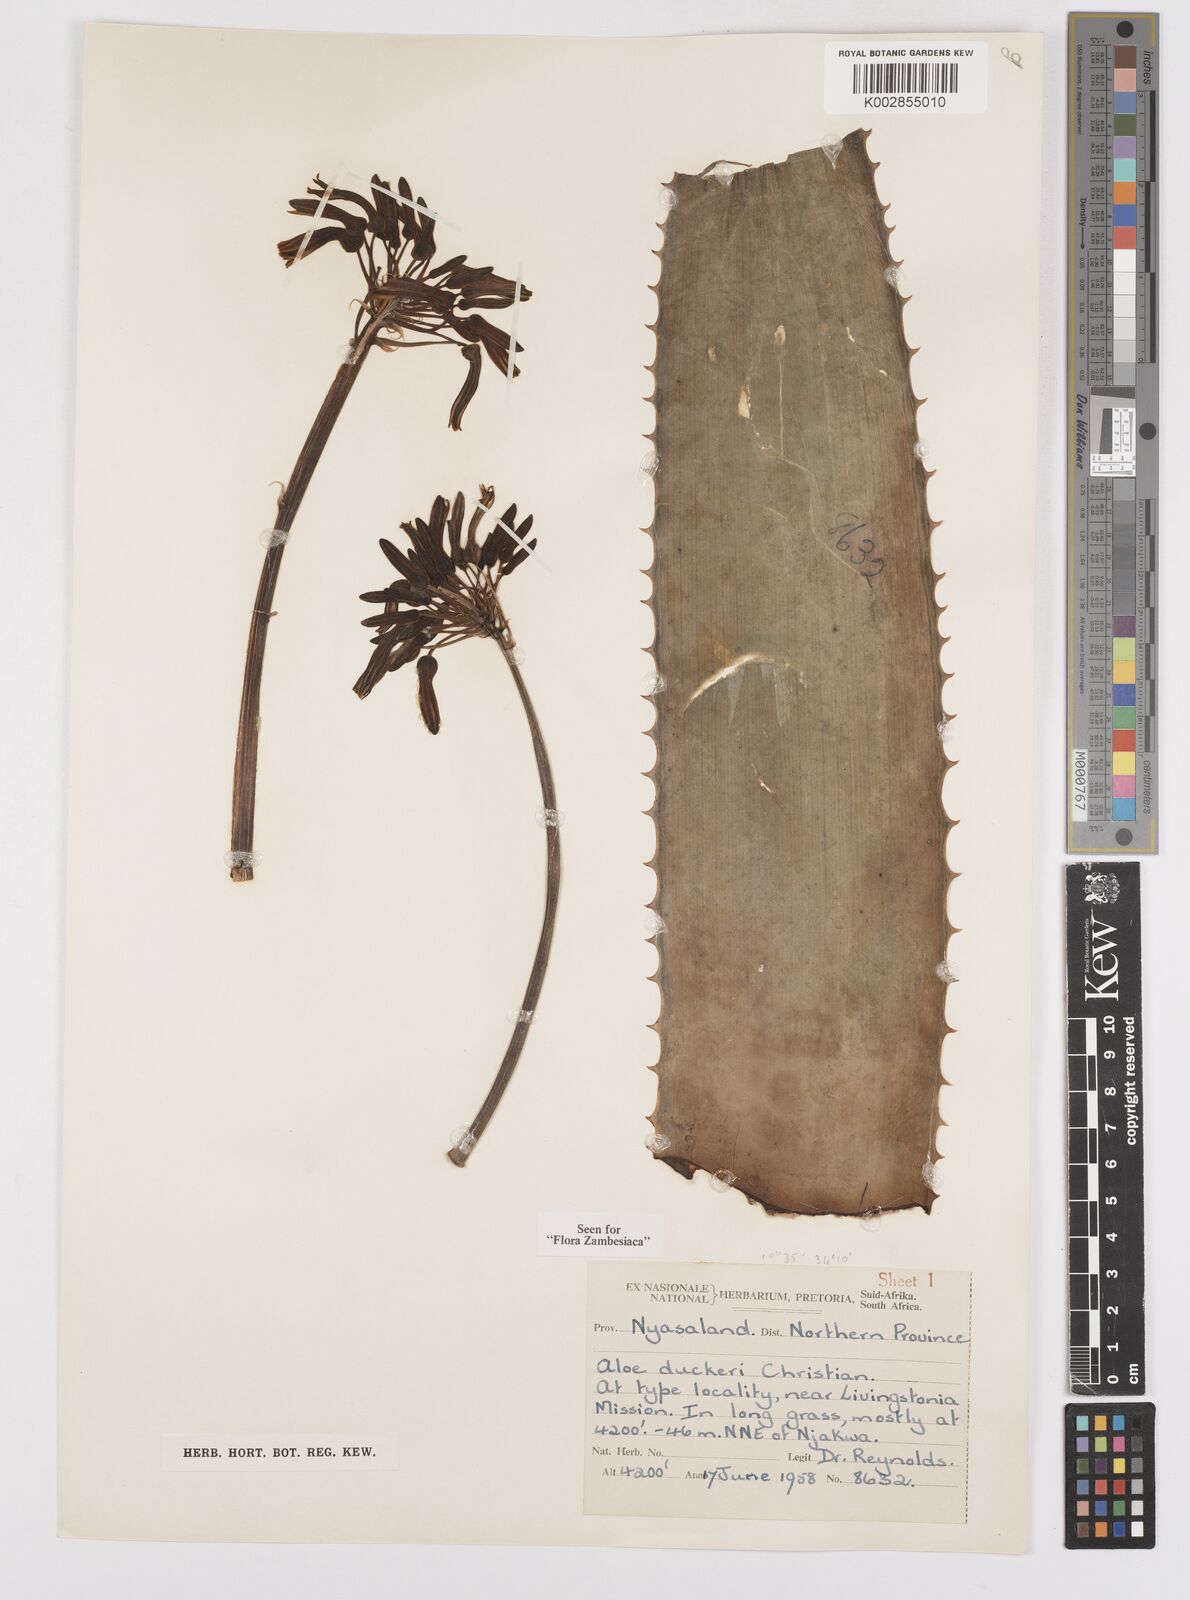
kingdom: Plantae
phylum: Tracheophyta
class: Liliopsida
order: Asparagales
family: Asphodelaceae
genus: Aloe
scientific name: Aloe duckeri
